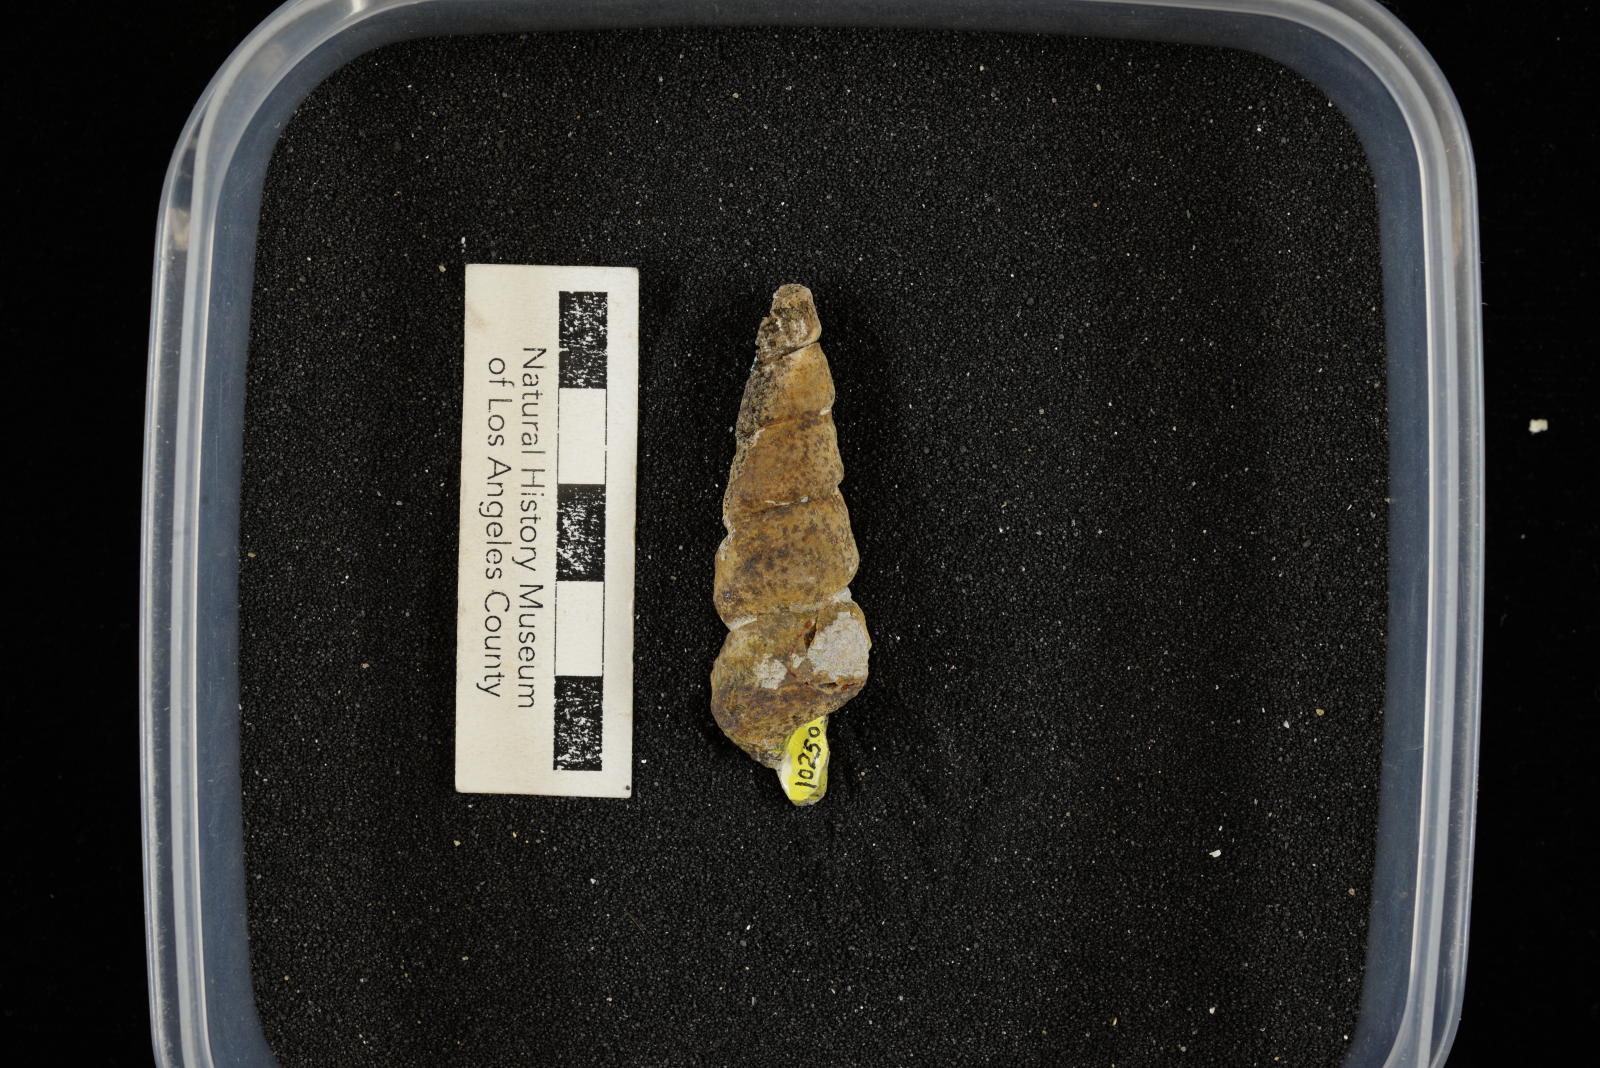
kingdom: Animalia
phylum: Mollusca
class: Gastropoda
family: Turritellidae
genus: Turritella
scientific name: Turritella chaneyi
